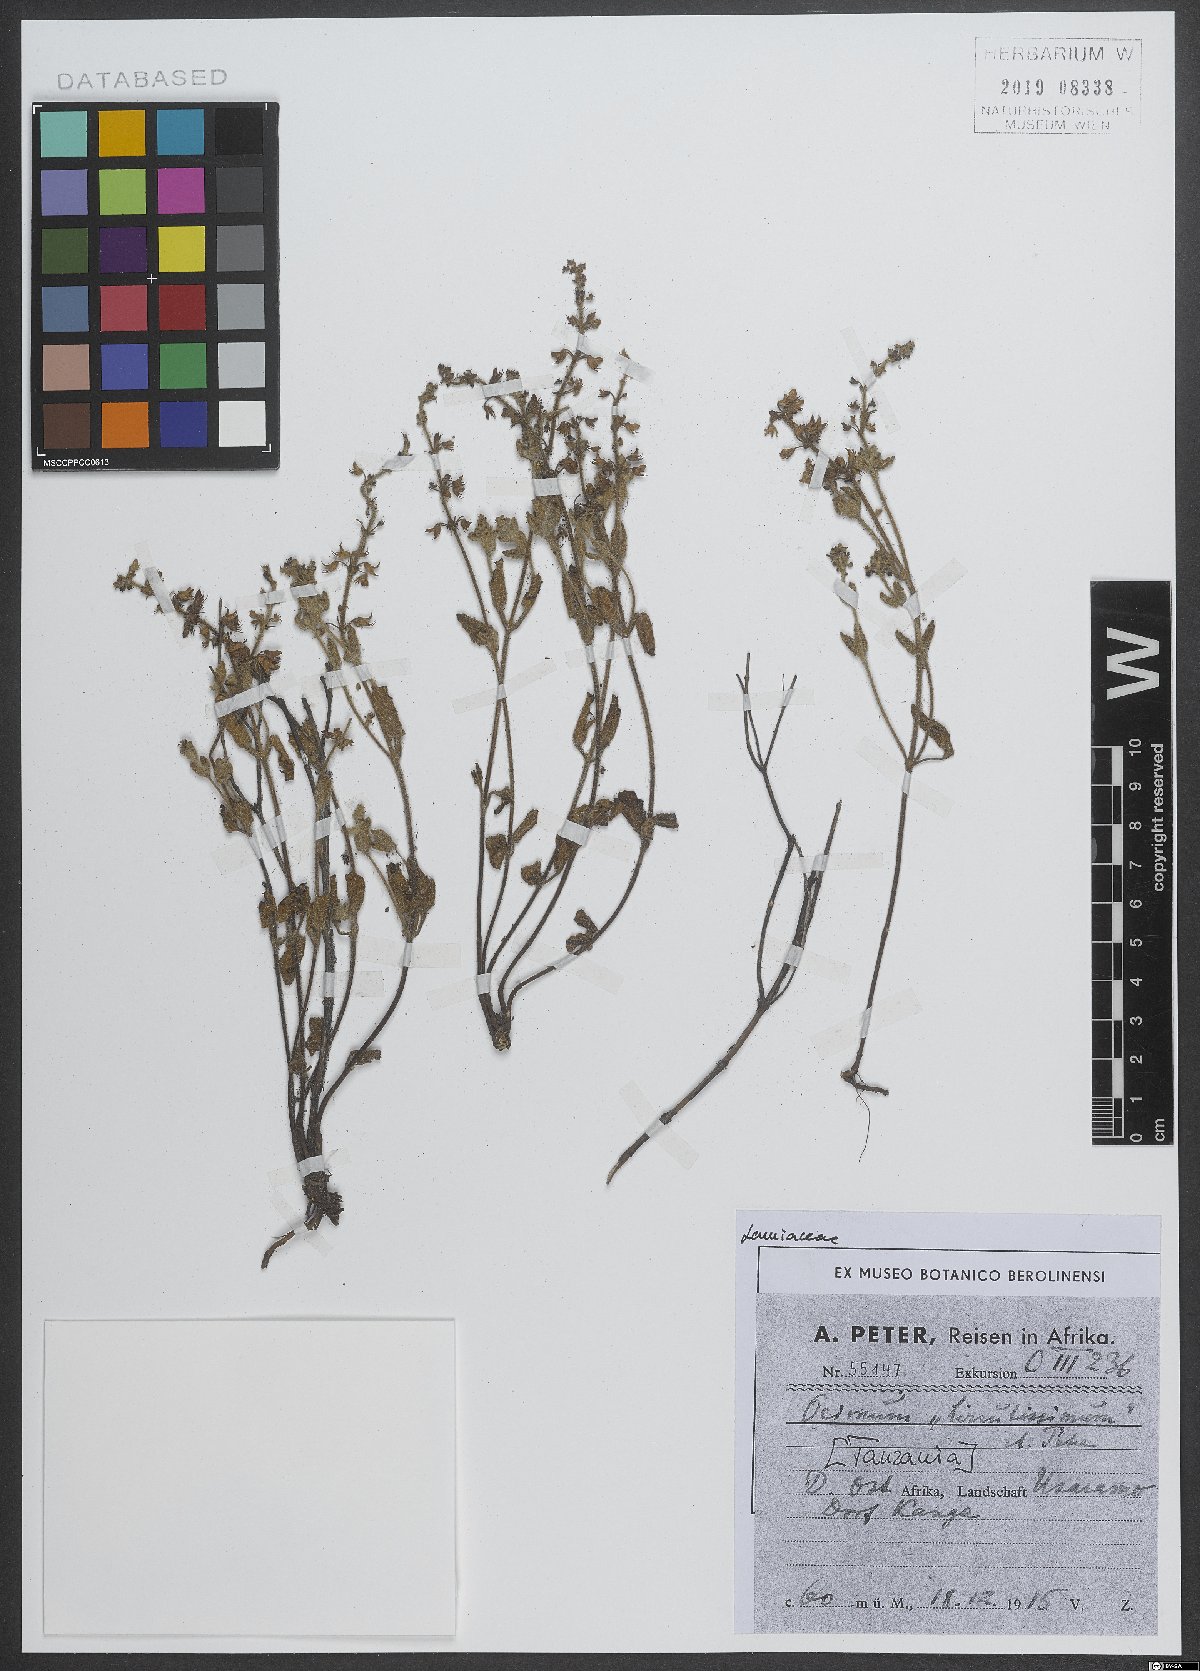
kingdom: Plantae
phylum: Tracheophyta
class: Magnoliopsida
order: Lamiales
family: Lamiaceae
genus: Ocimum
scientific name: Ocimum hirsutissimum
